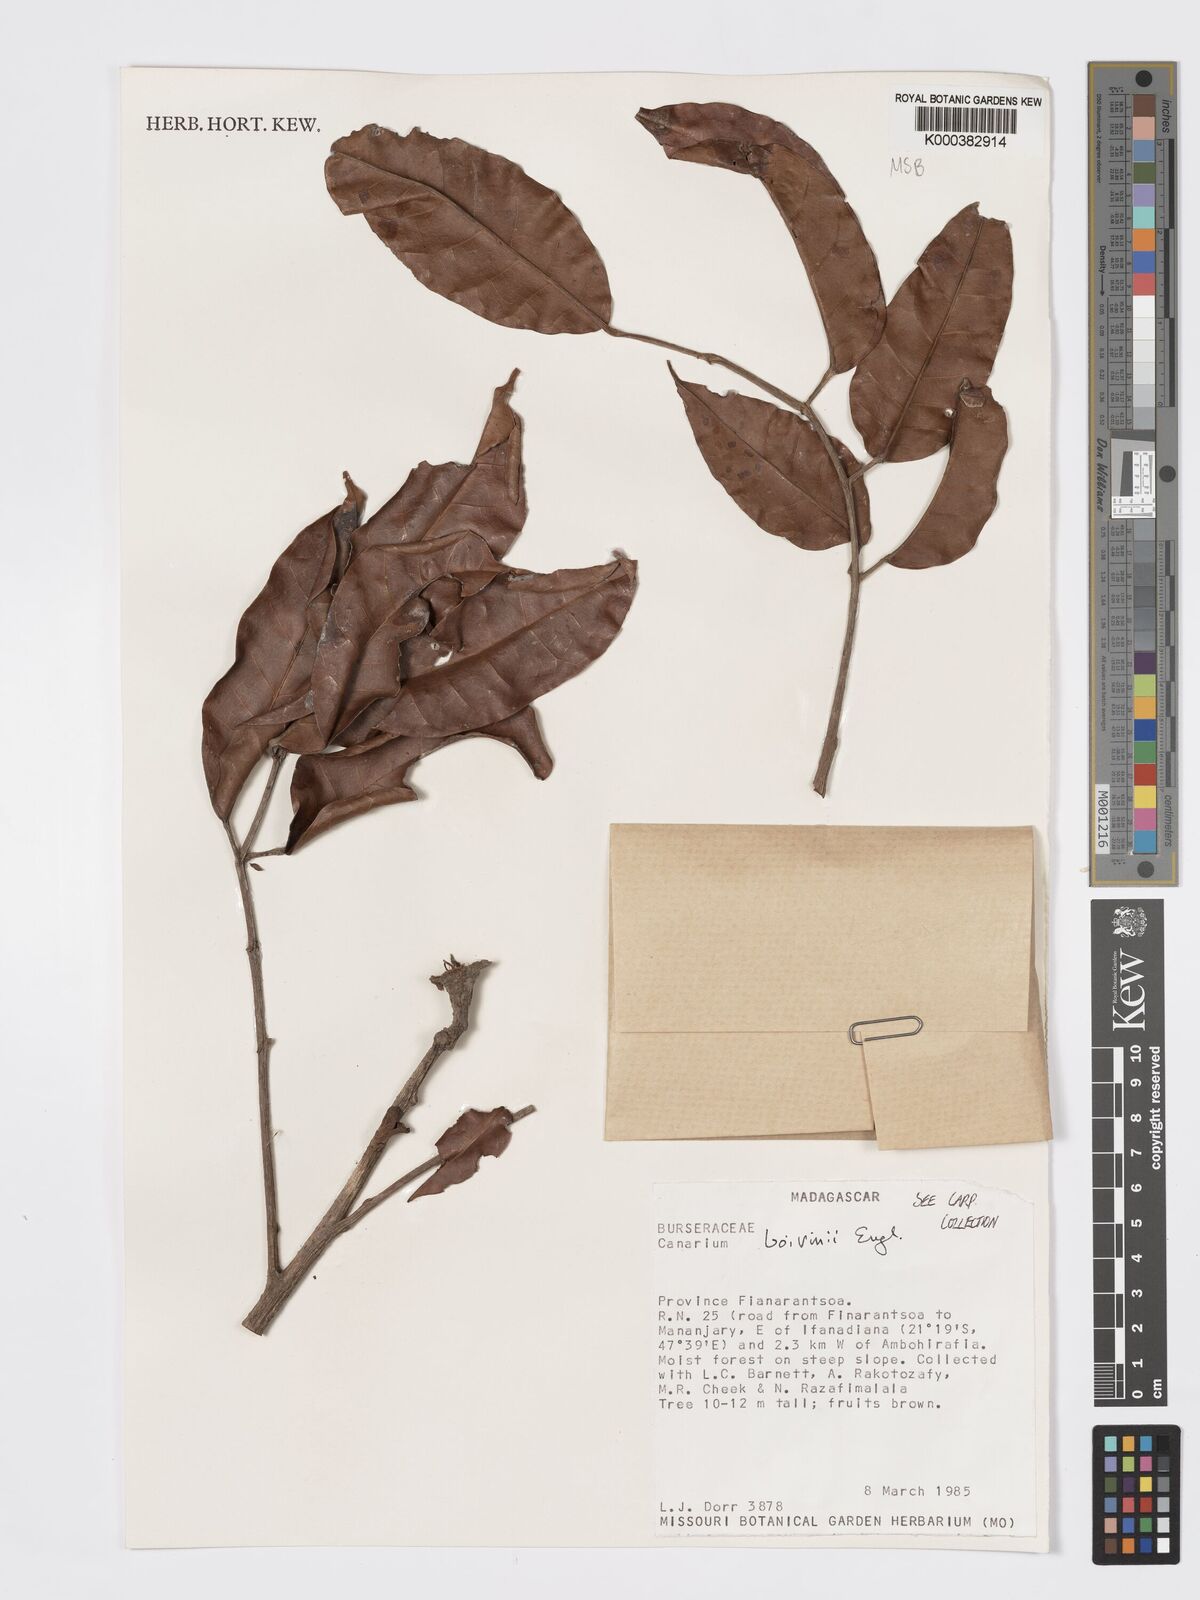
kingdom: Plantae
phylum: Tracheophyta
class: Magnoliopsida
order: Sapindales
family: Burseraceae
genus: Canarium
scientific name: Canarium madagascariense
